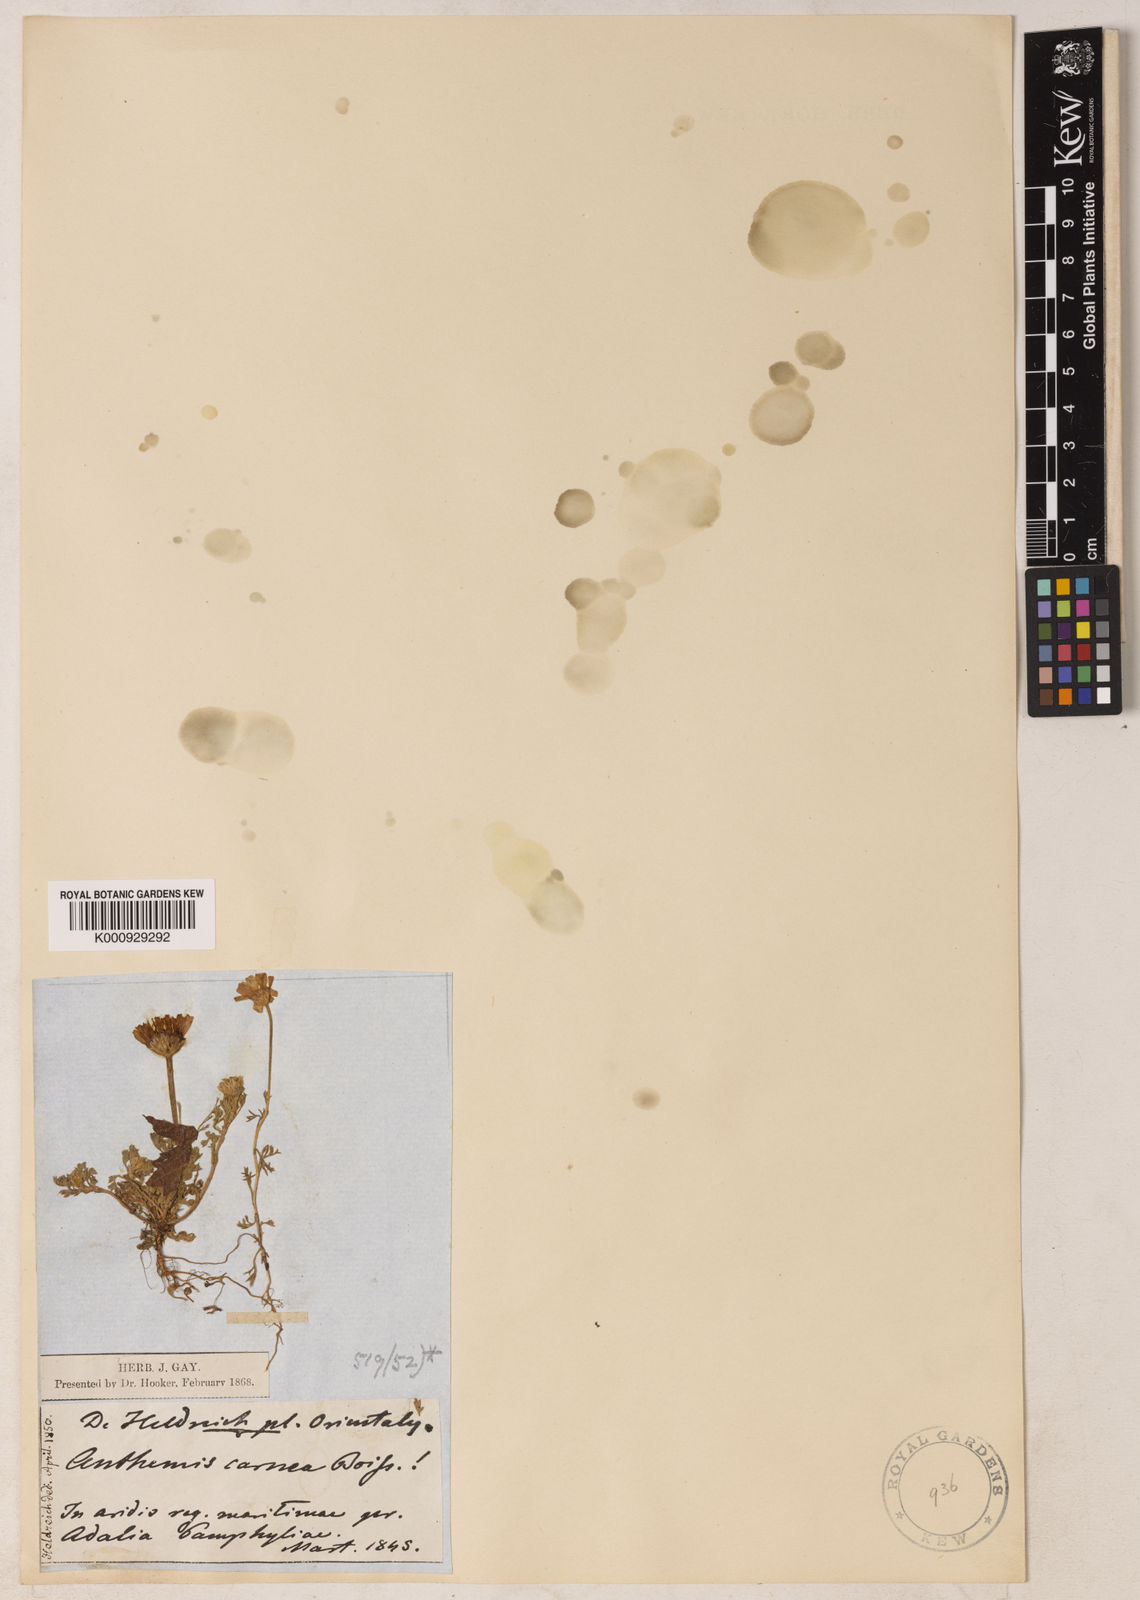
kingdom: Plantae
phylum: Tracheophyta
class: Magnoliopsida
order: Asterales
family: Asteraceae
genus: Anthemis
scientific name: Anthemis rosea
